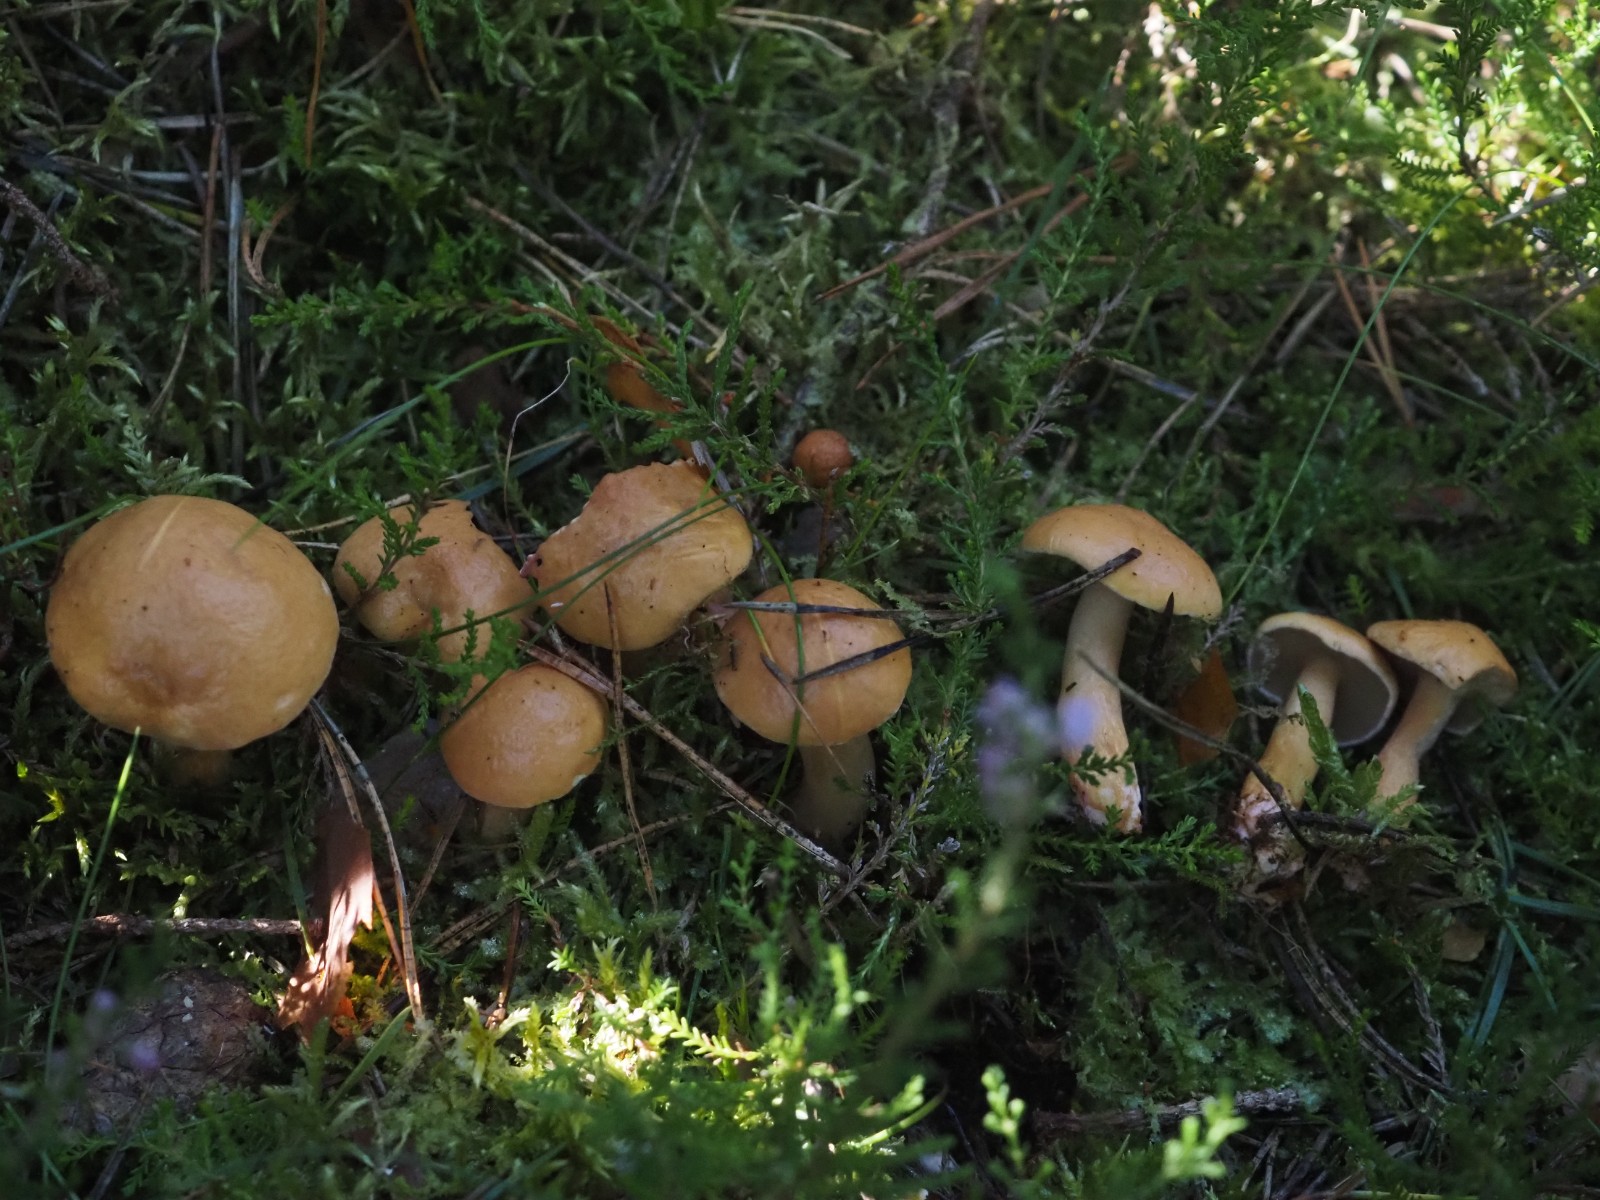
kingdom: Fungi
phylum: Basidiomycota
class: Agaricomycetes
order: Boletales
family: Suillaceae
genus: Suillus
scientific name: Suillus bovinus
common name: grovporet slimrørhat
